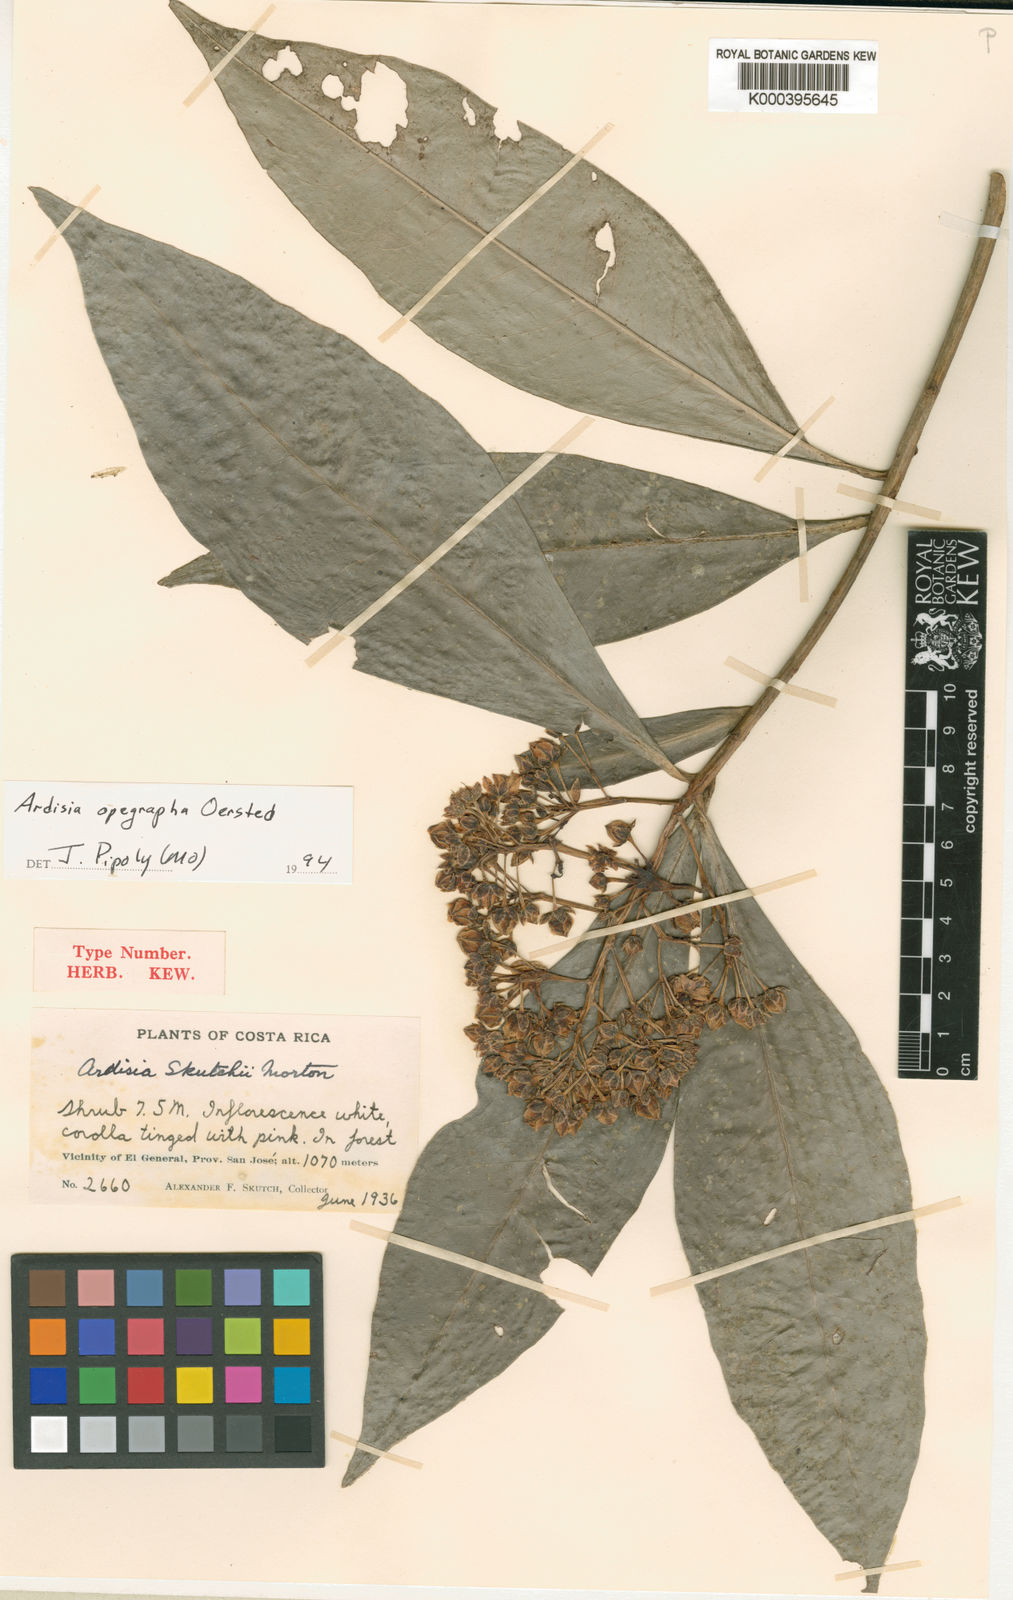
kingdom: Plantae
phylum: Tracheophyta
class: Magnoliopsida
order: Ericales
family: Primulaceae
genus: Ardisia
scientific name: Ardisia opegrapha
